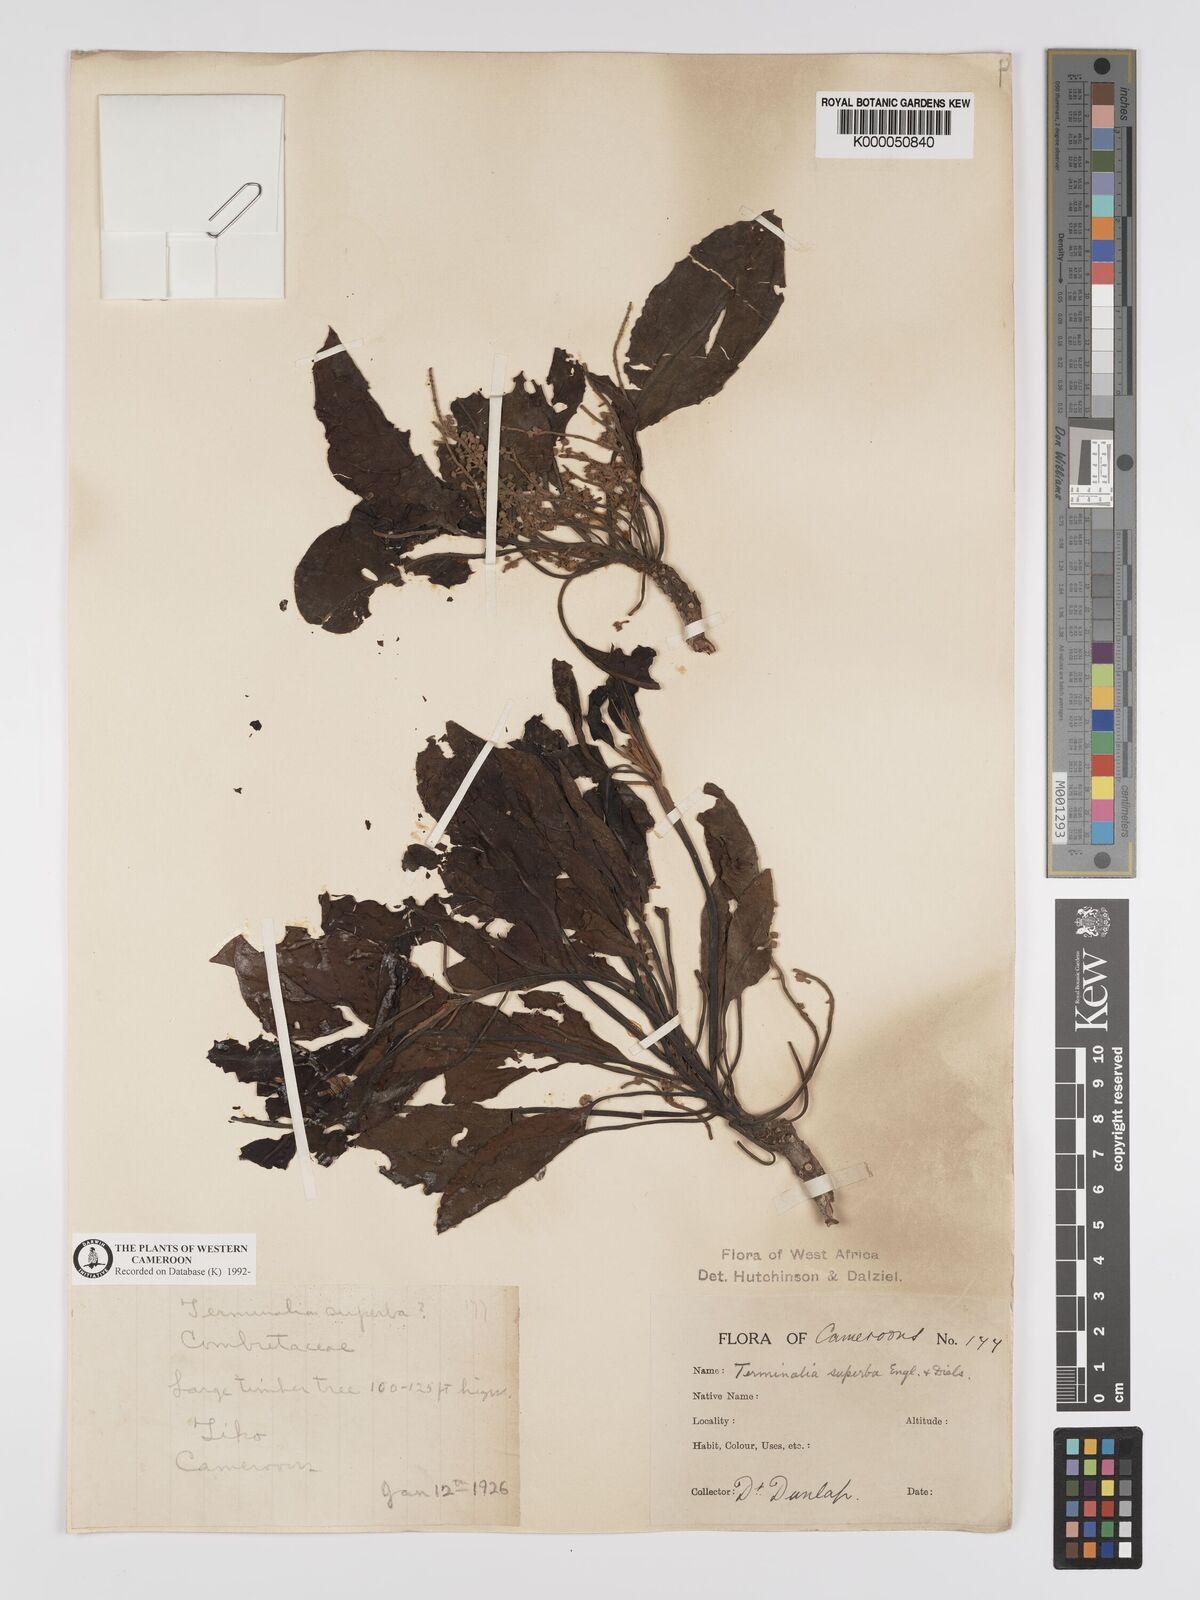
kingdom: Plantae
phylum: Tracheophyta
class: Magnoliopsida
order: Myrtales
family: Combretaceae
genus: Terminalia
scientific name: Terminalia superba
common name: White afara
